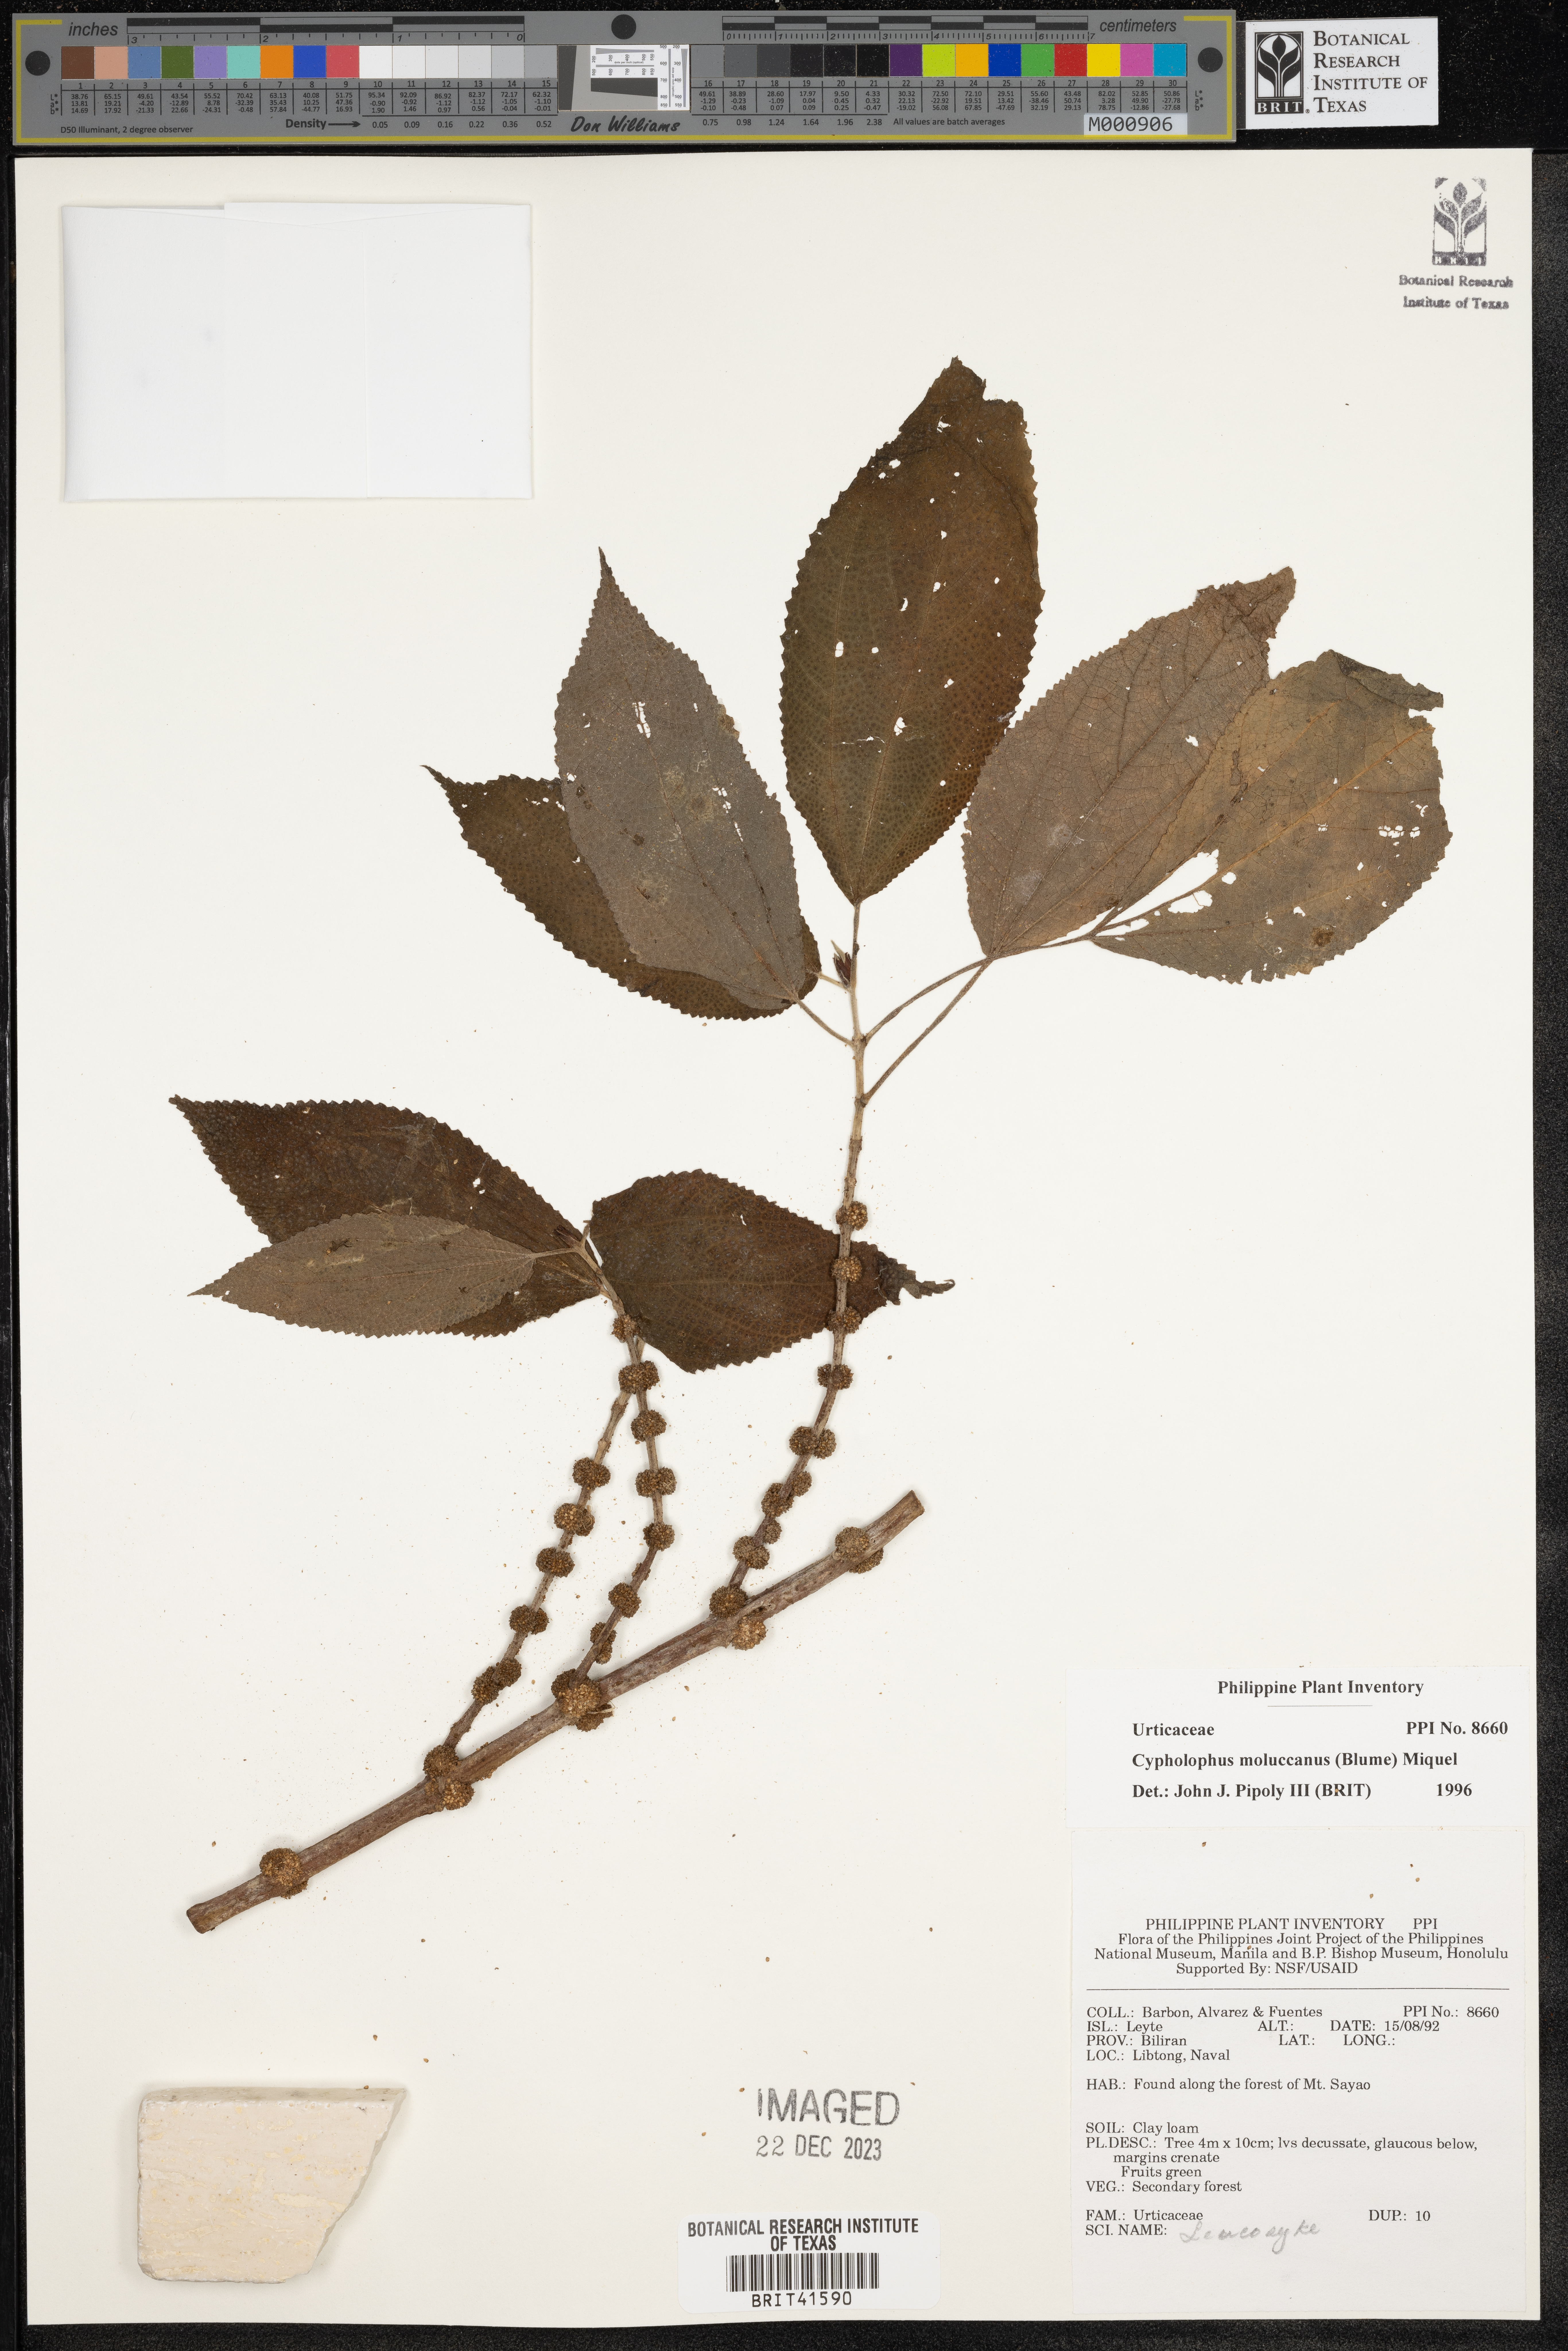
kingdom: Plantae
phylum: Tracheophyta
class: Magnoliopsida
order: Rosales
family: Urticaceae
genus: Cypholophus
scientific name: Cypholophus moluccanus
